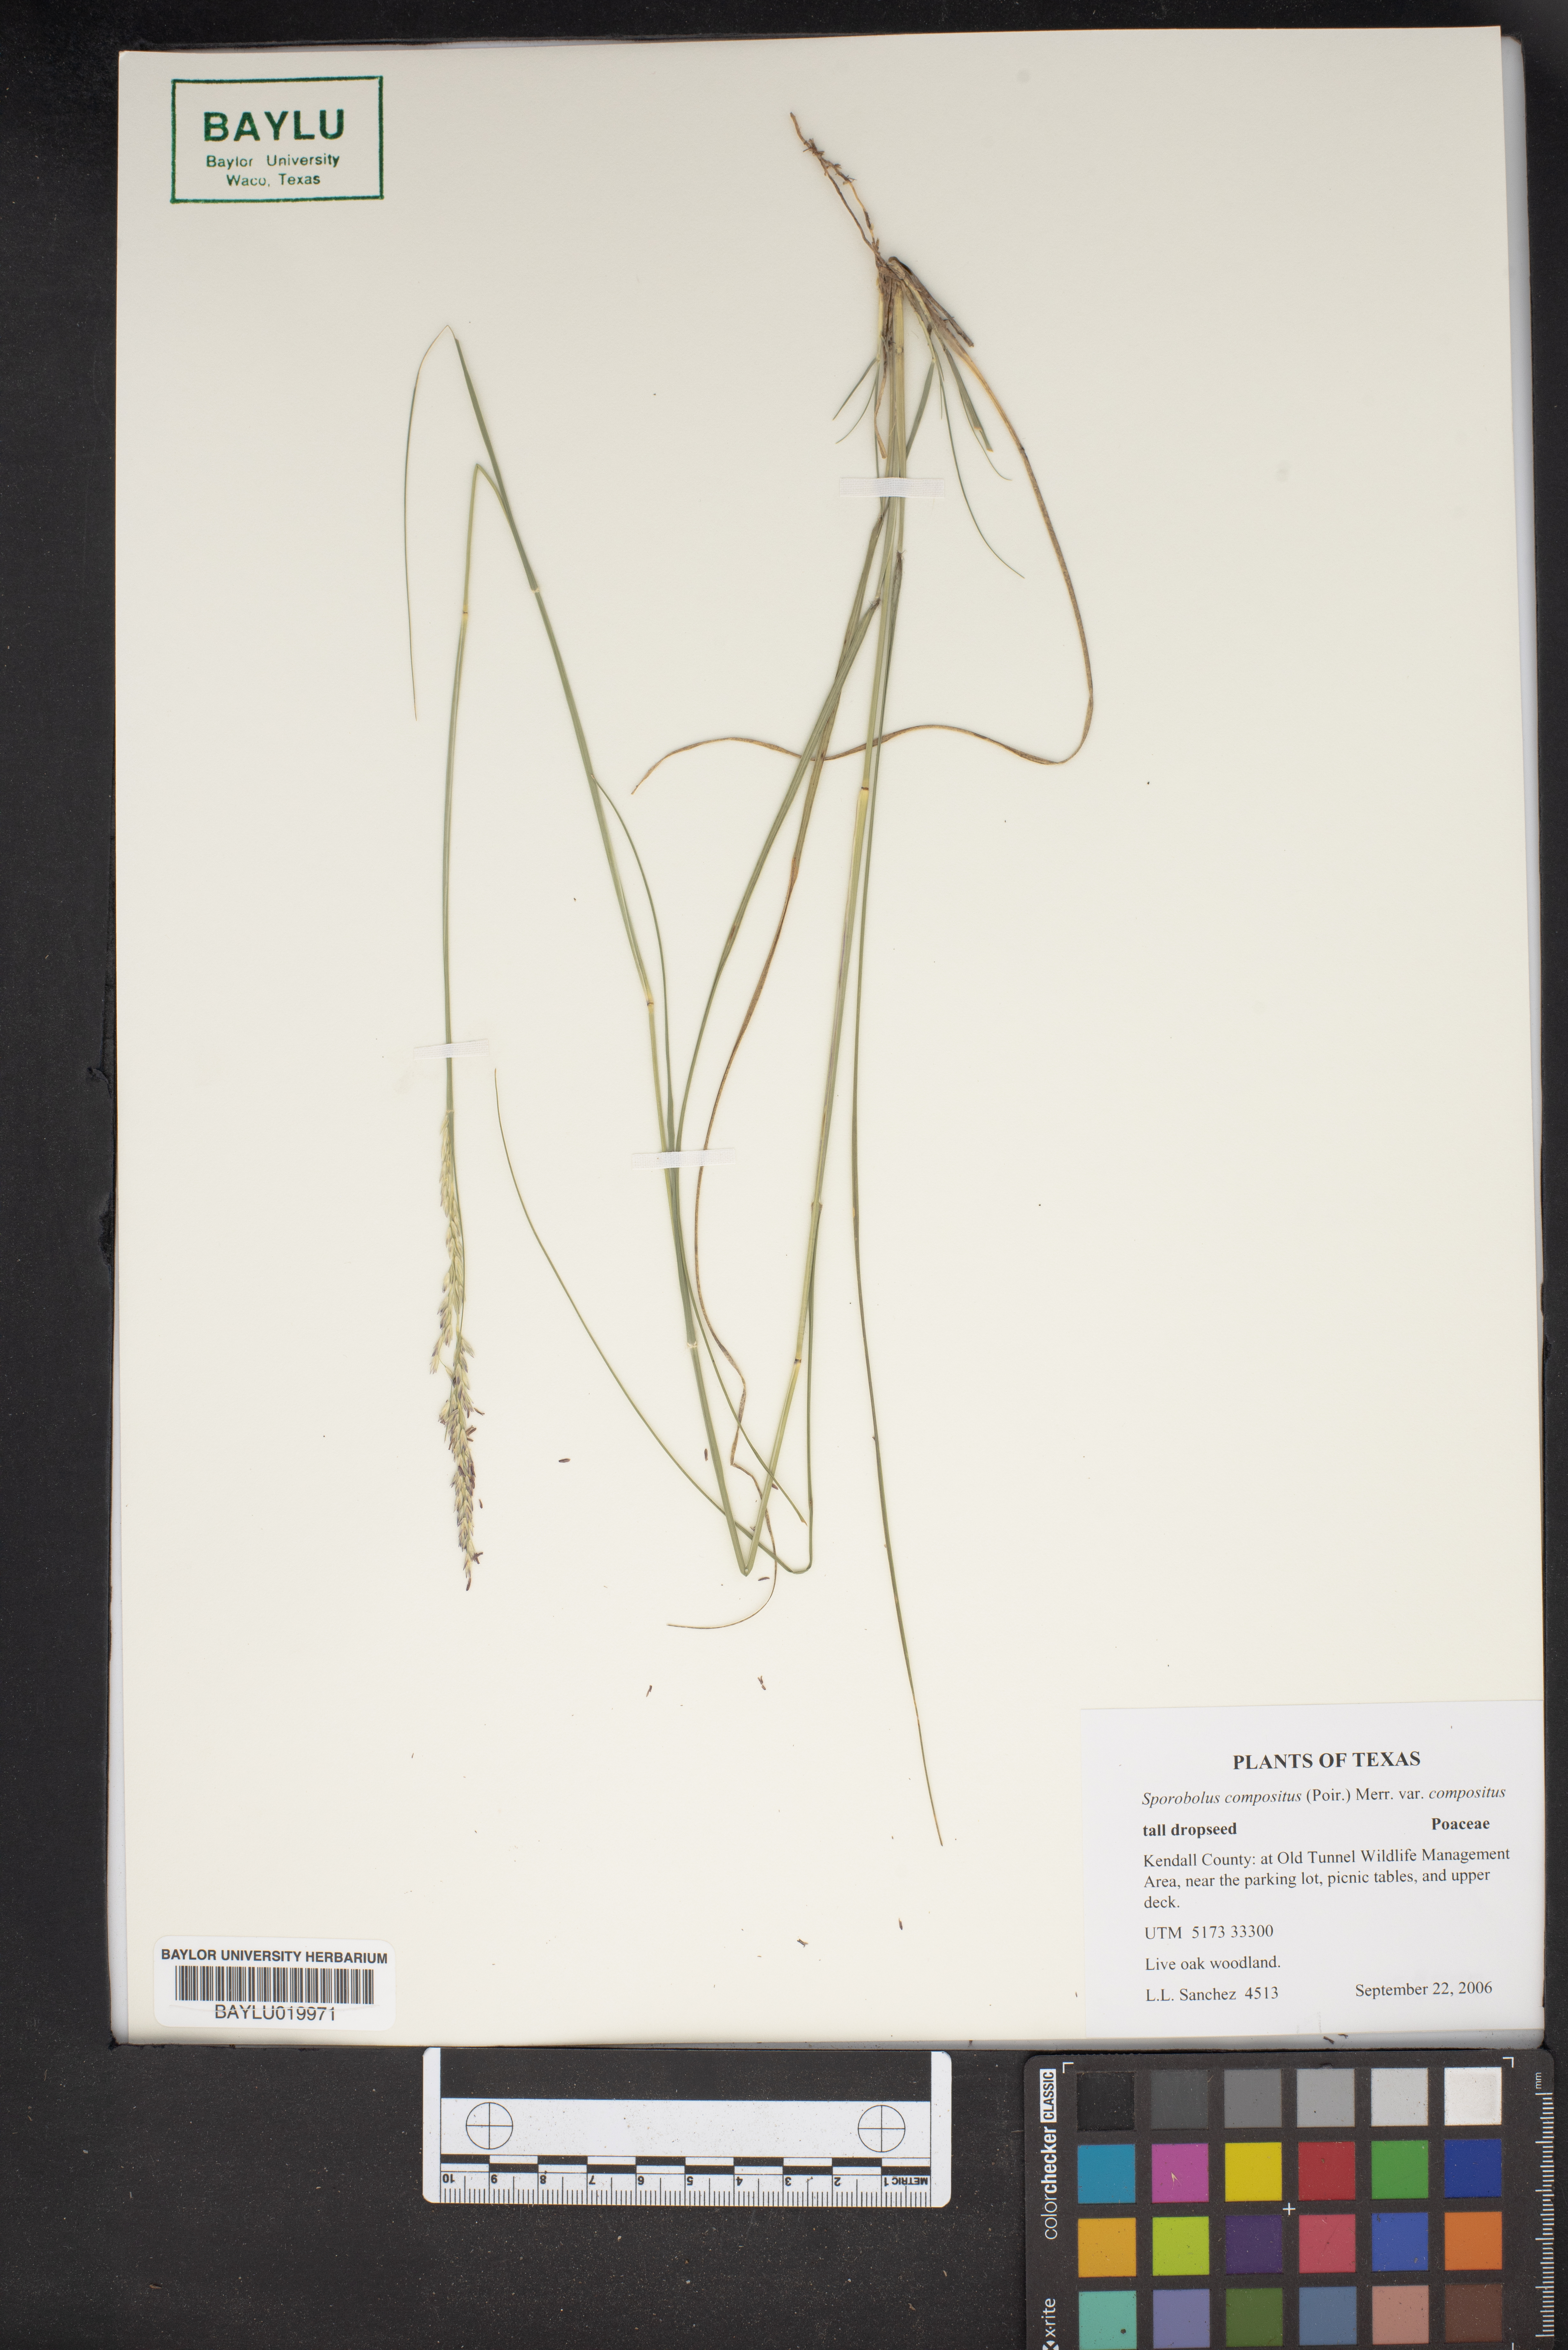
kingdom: Plantae
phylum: Tracheophyta
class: Liliopsida
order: Poales
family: Poaceae
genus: Sporobolus
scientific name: Sporobolus compositus
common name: Rough dropseed
